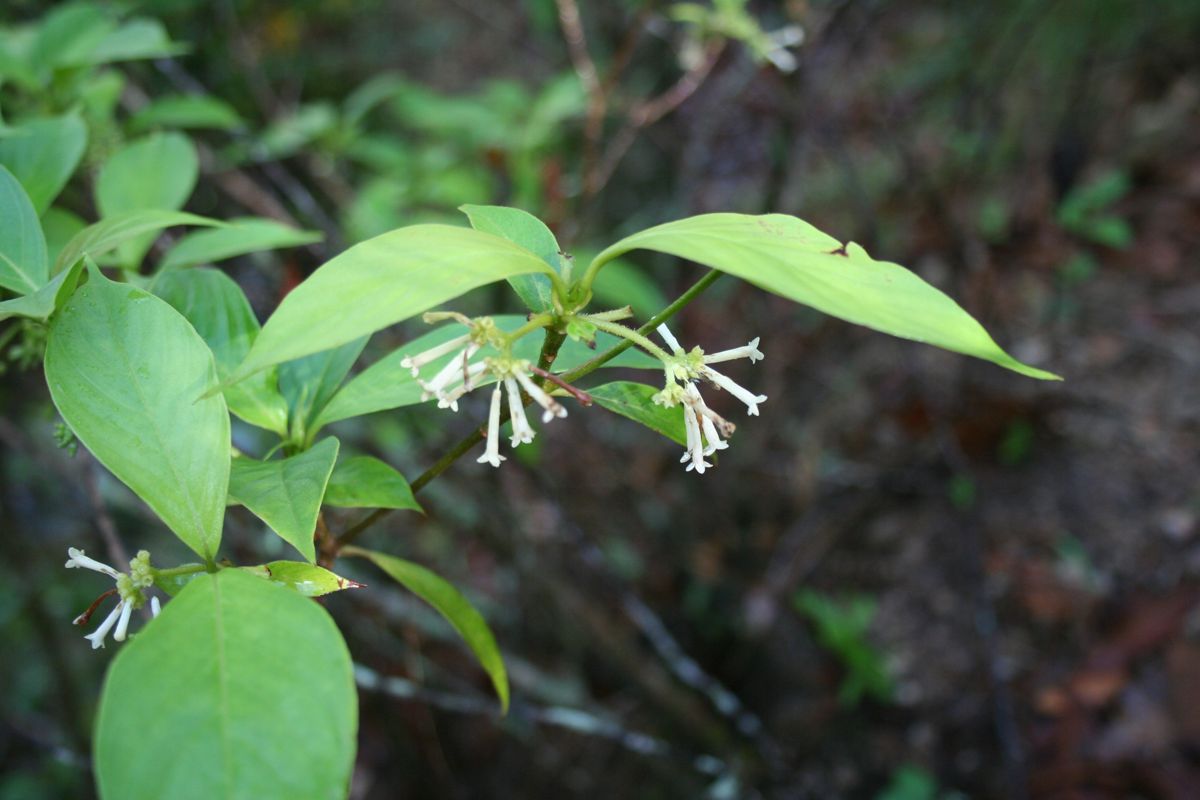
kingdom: Plantae
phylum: Tracheophyta
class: Magnoliopsida
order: Gentianales
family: Rubiaceae
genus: Pittoniotis
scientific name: Pittoniotis protracta
